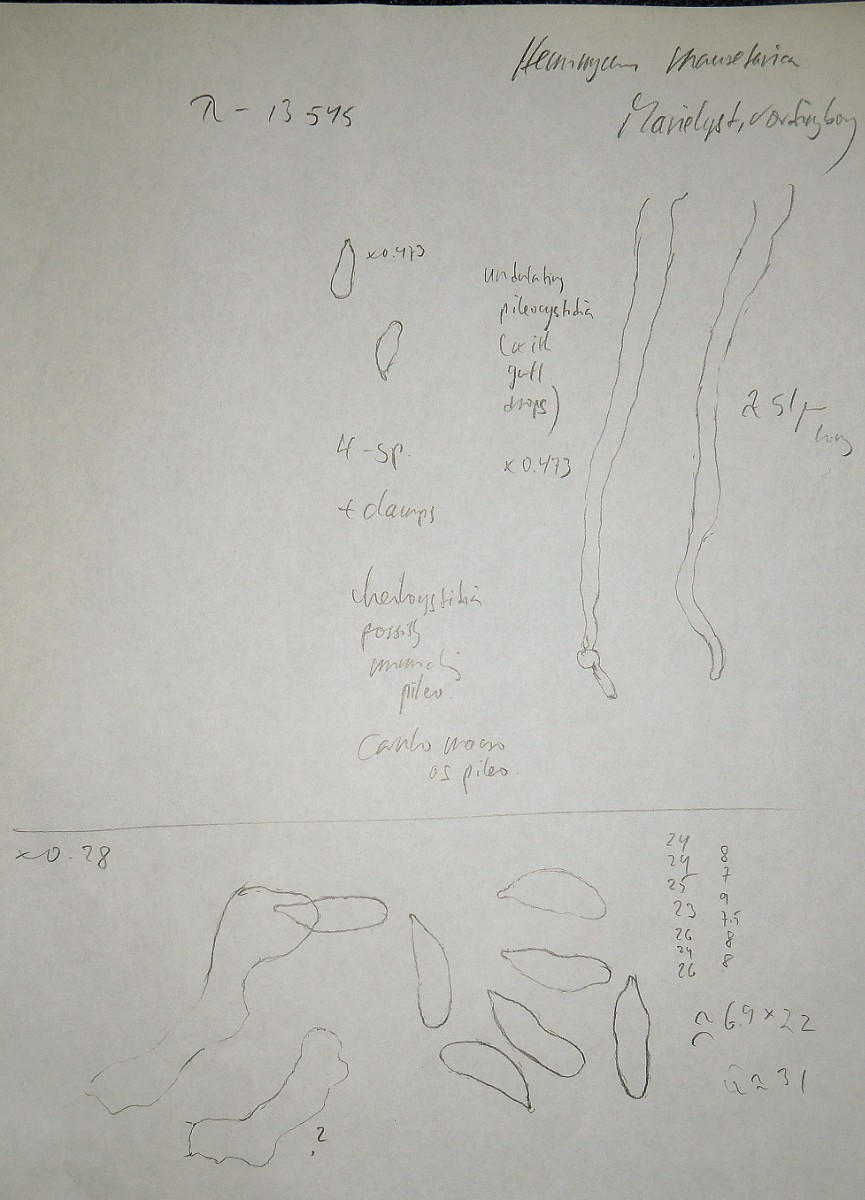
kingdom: Fungi
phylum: Basidiomycota
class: Agaricomycetes
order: Agaricales
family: Mycenaceae
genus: Hemimycena
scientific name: Hemimycena mauretanica
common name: smalsporet huesvamp
